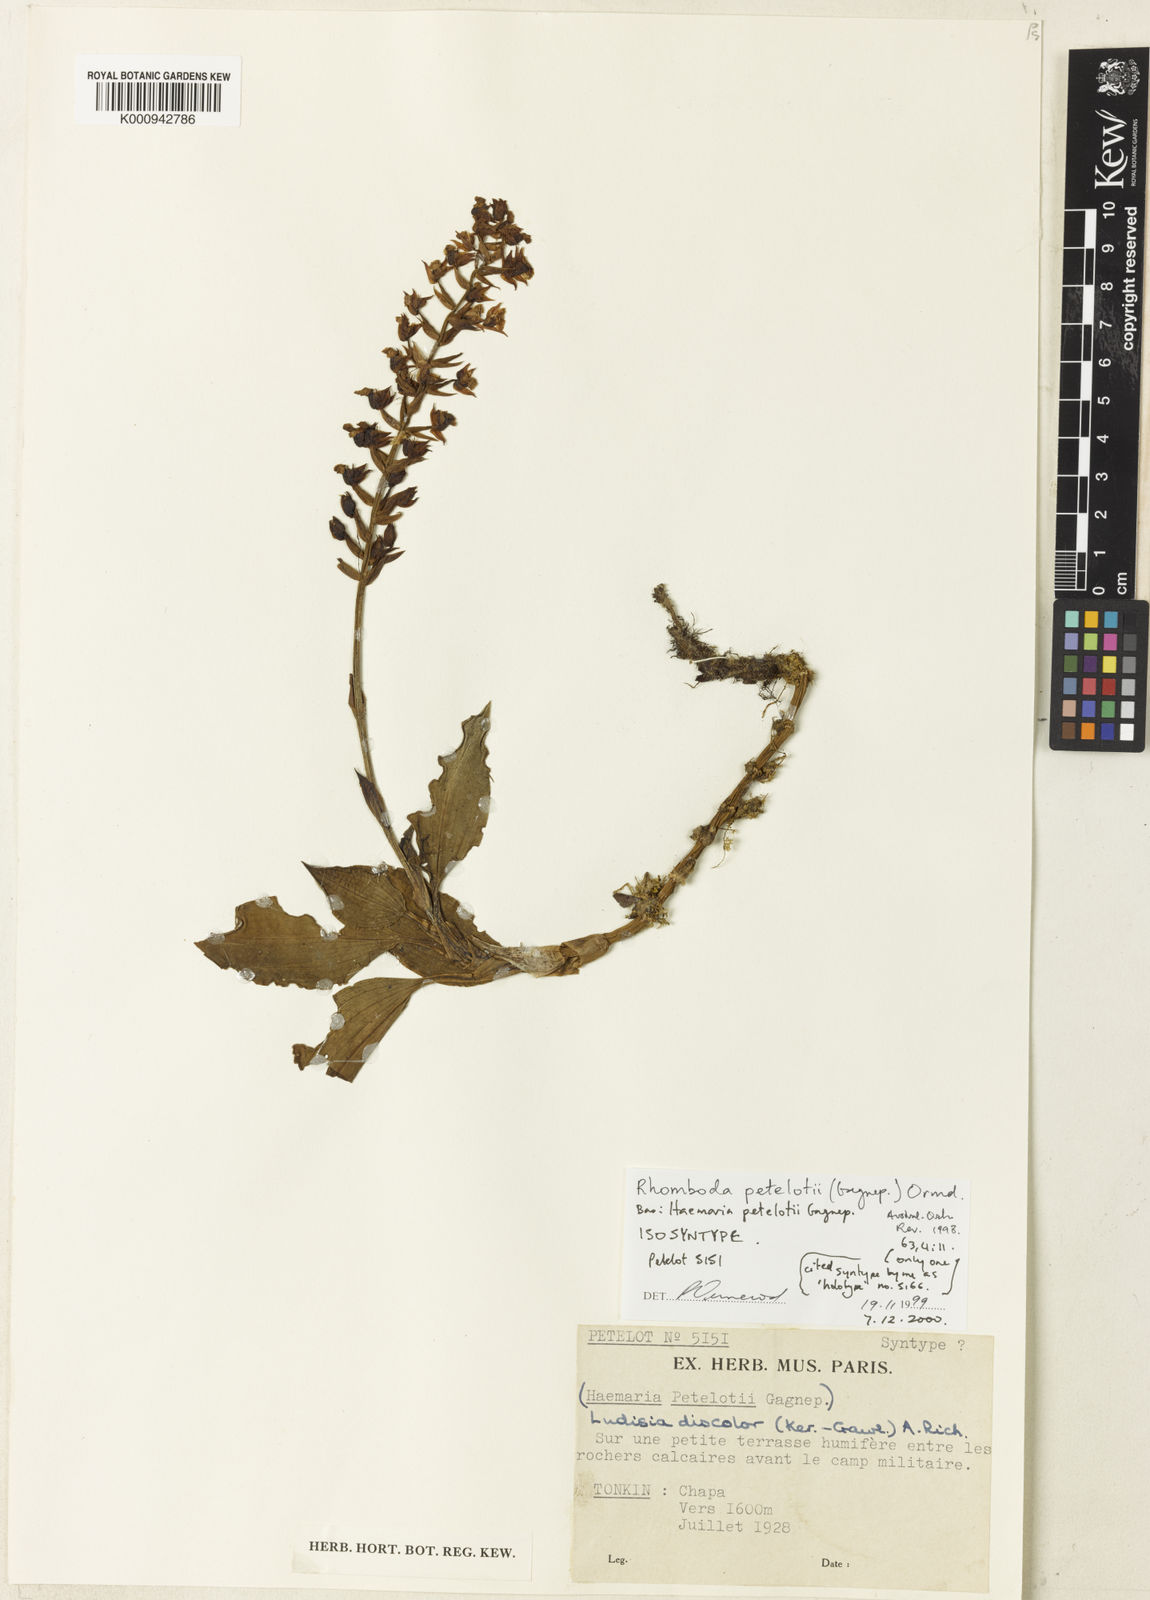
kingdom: Plantae
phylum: Tracheophyta
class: Liliopsida
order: Asparagales
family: Orchidaceae
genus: Rhomboda
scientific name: Rhomboda petelottii
